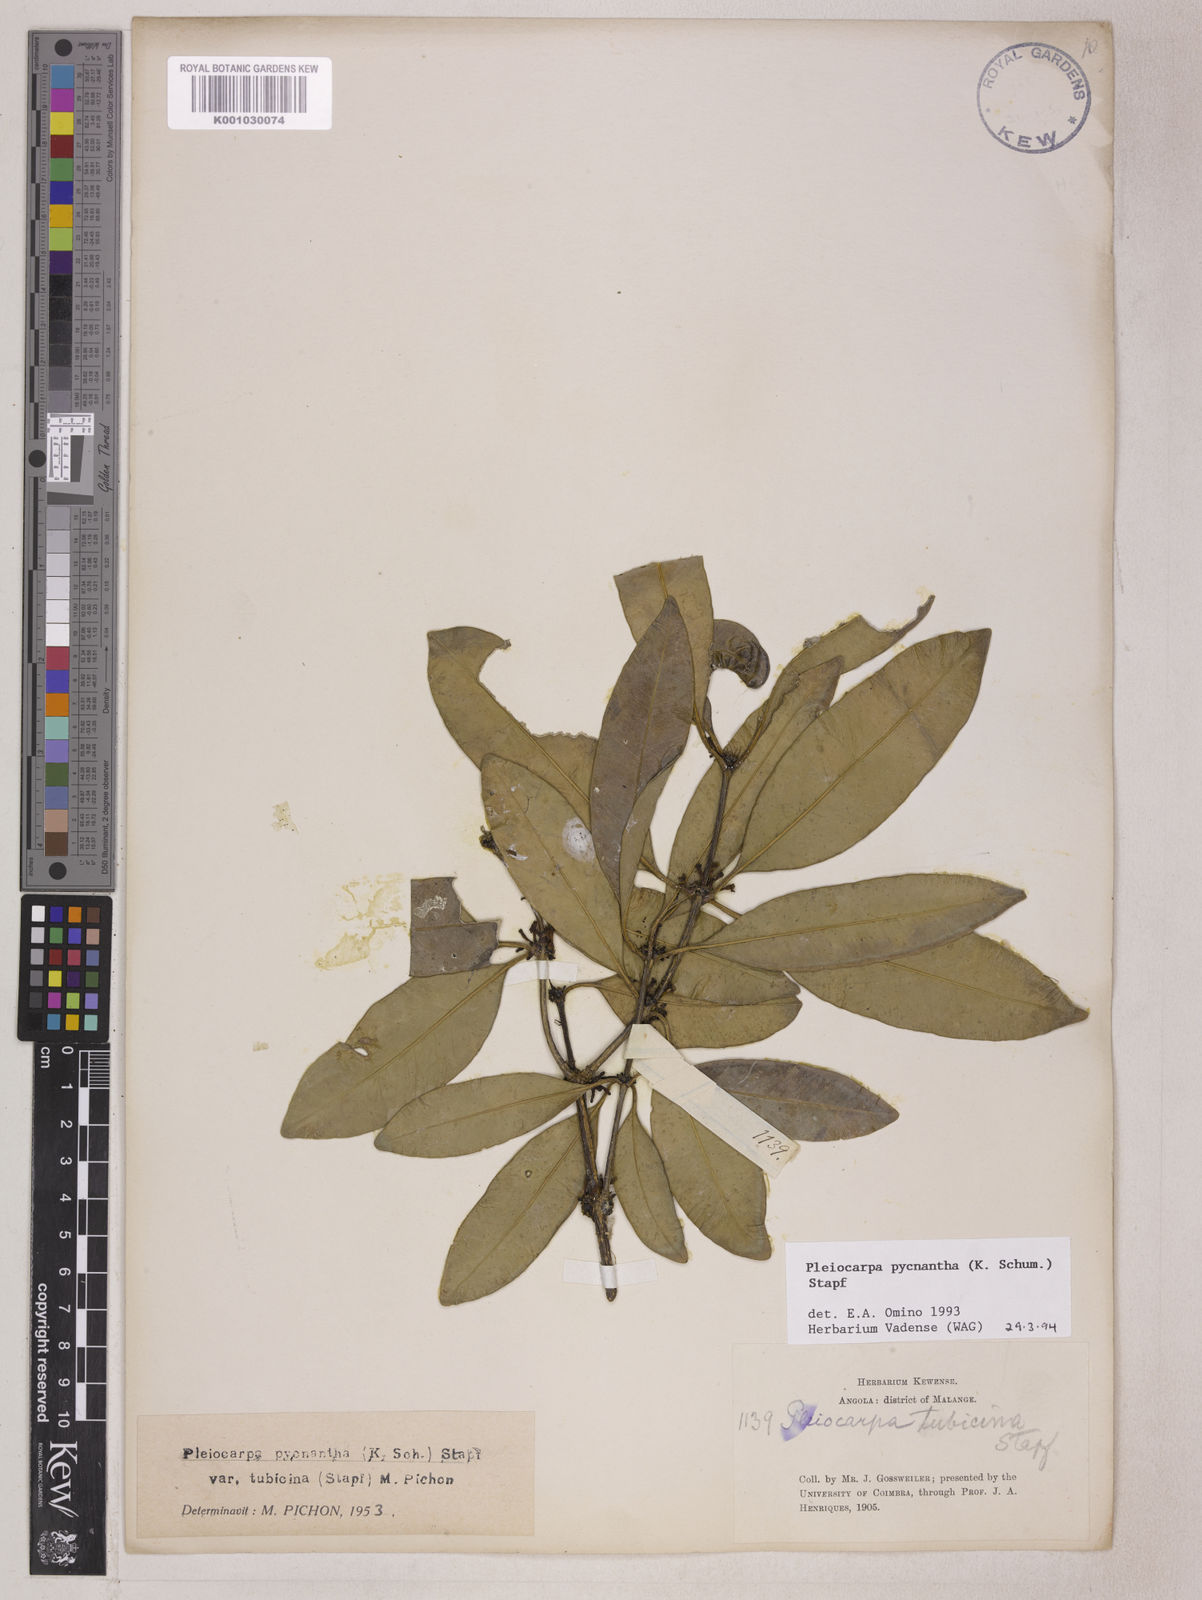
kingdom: Plantae
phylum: Tracheophyta
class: Magnoliopsida
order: Gentianales
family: Apocynaceae
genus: Pleiocarpa
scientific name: Pleiocarpa pycnantha
